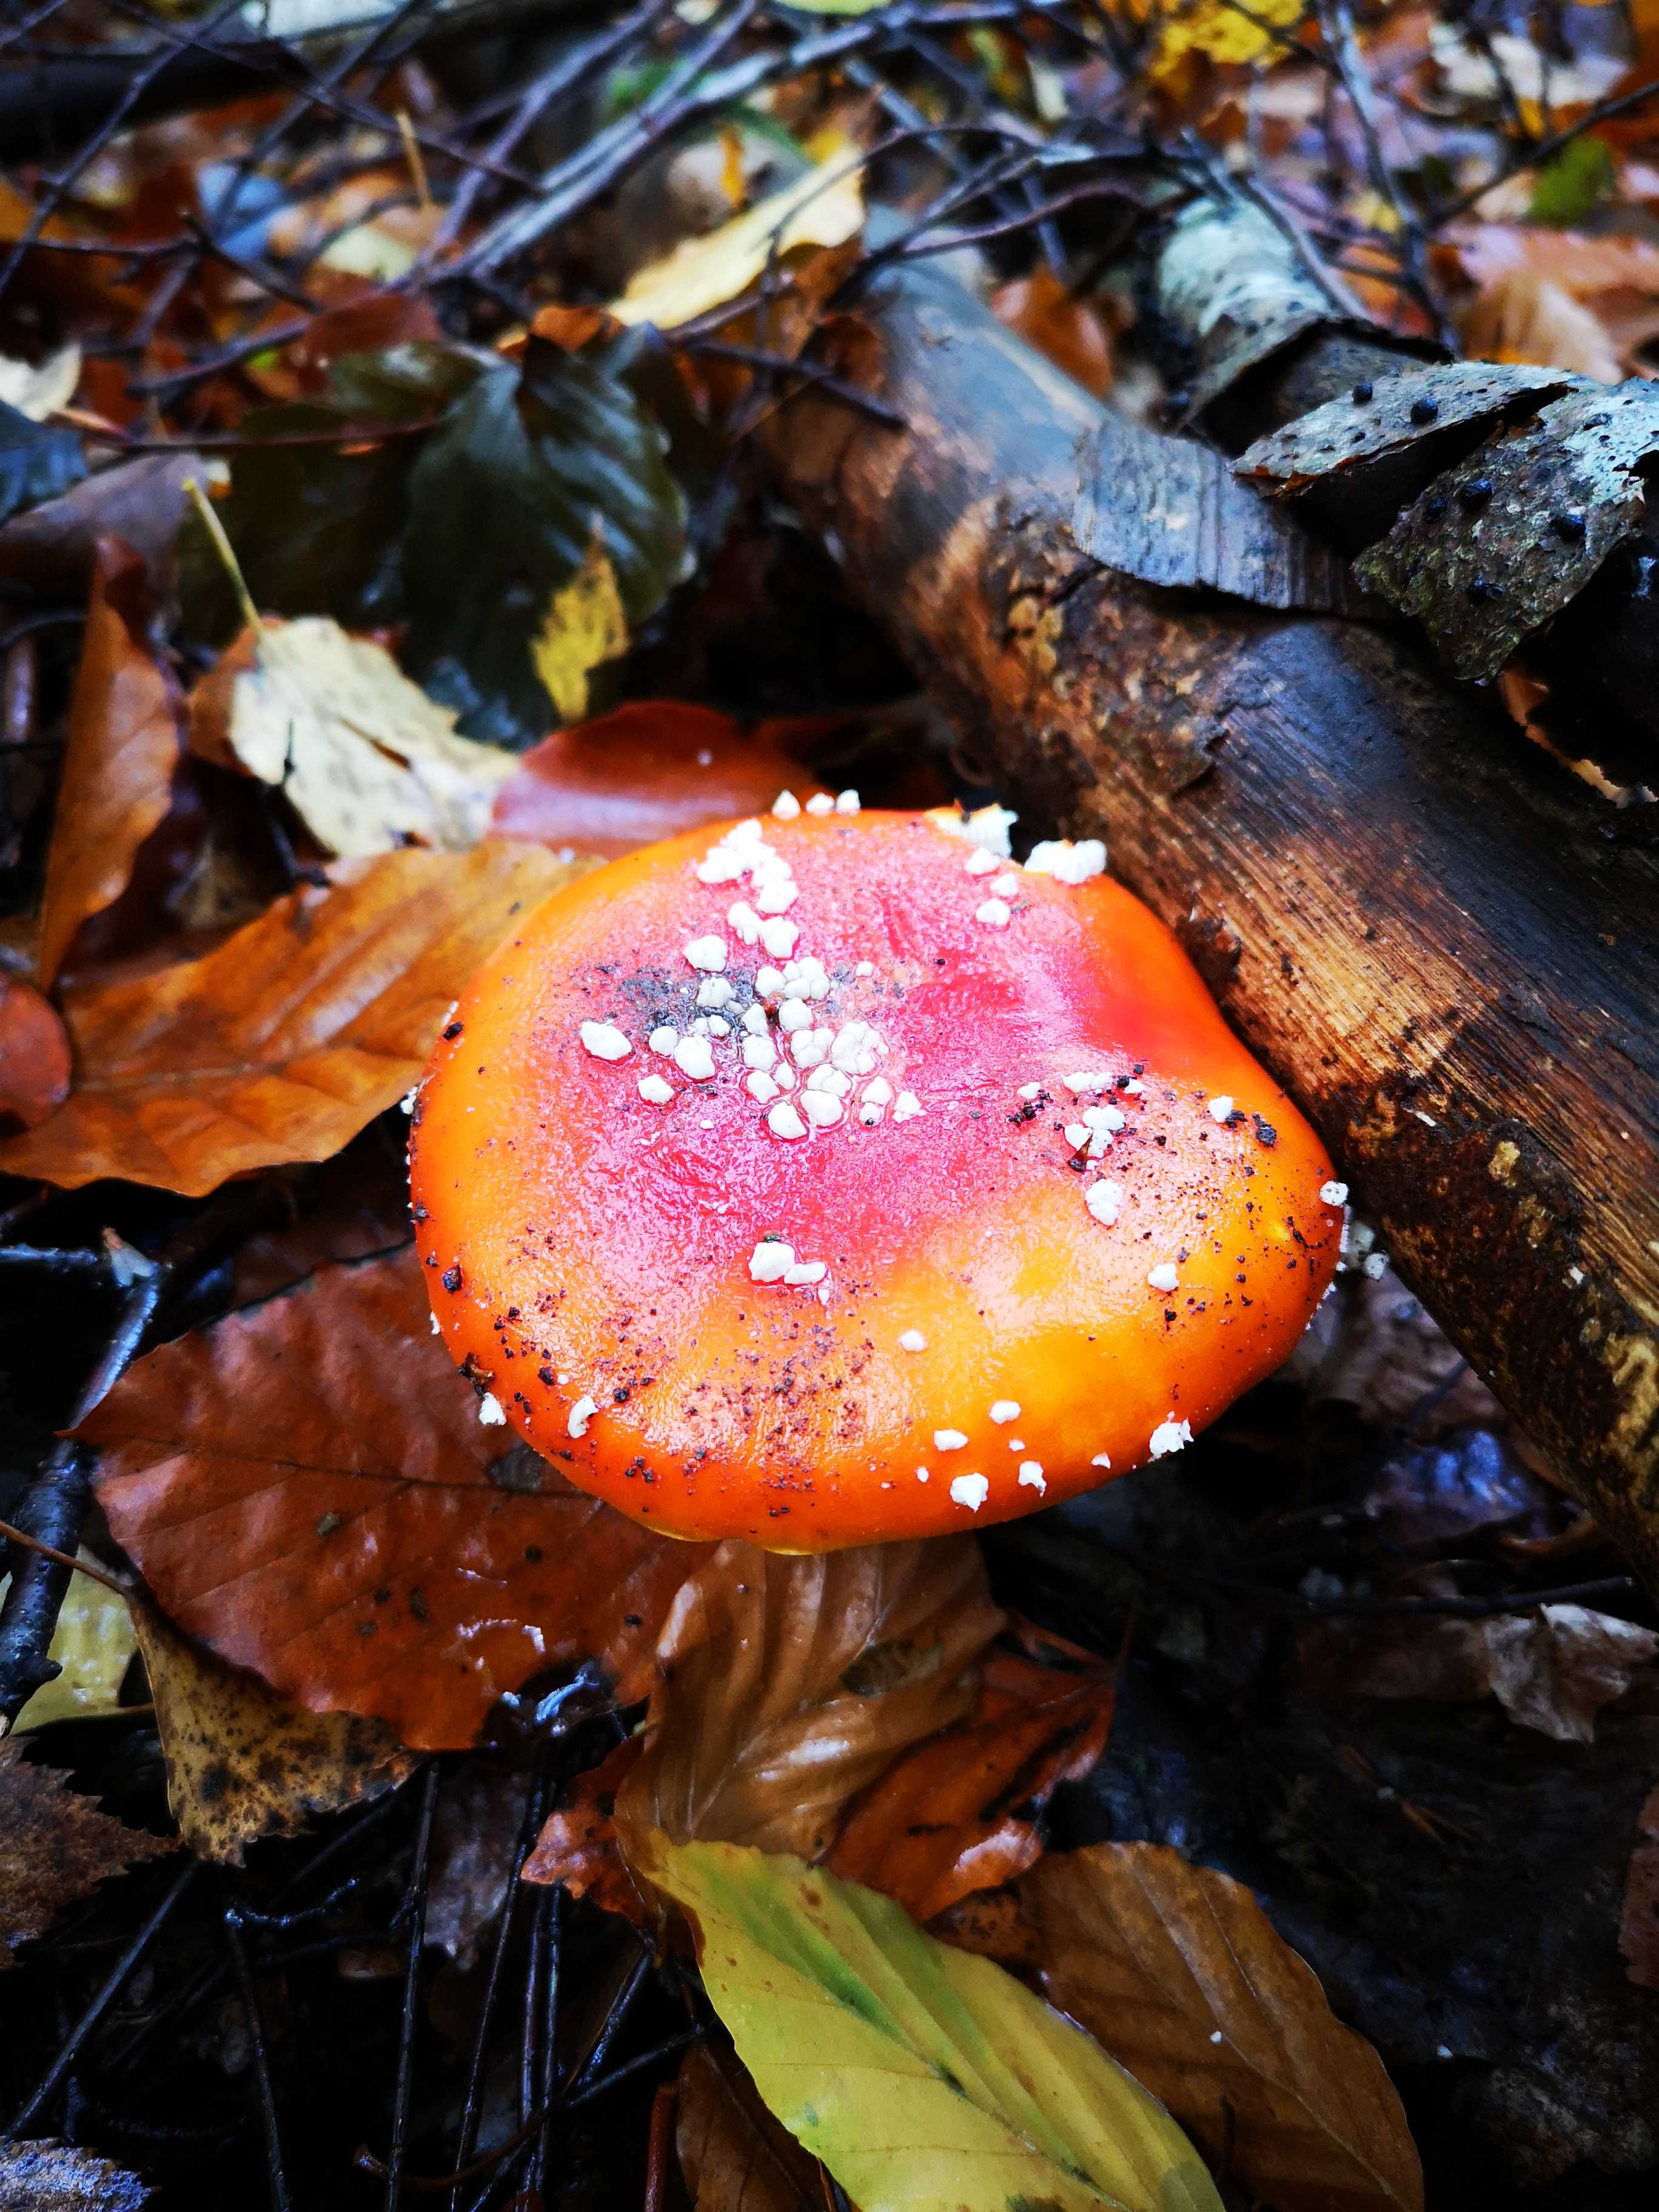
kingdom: Fungi
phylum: Basidiomycota
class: Agaricomycetes
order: Agaricales
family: Amanitaceae
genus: Amanita
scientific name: Amanita muscaria
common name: rød fluesvamp
